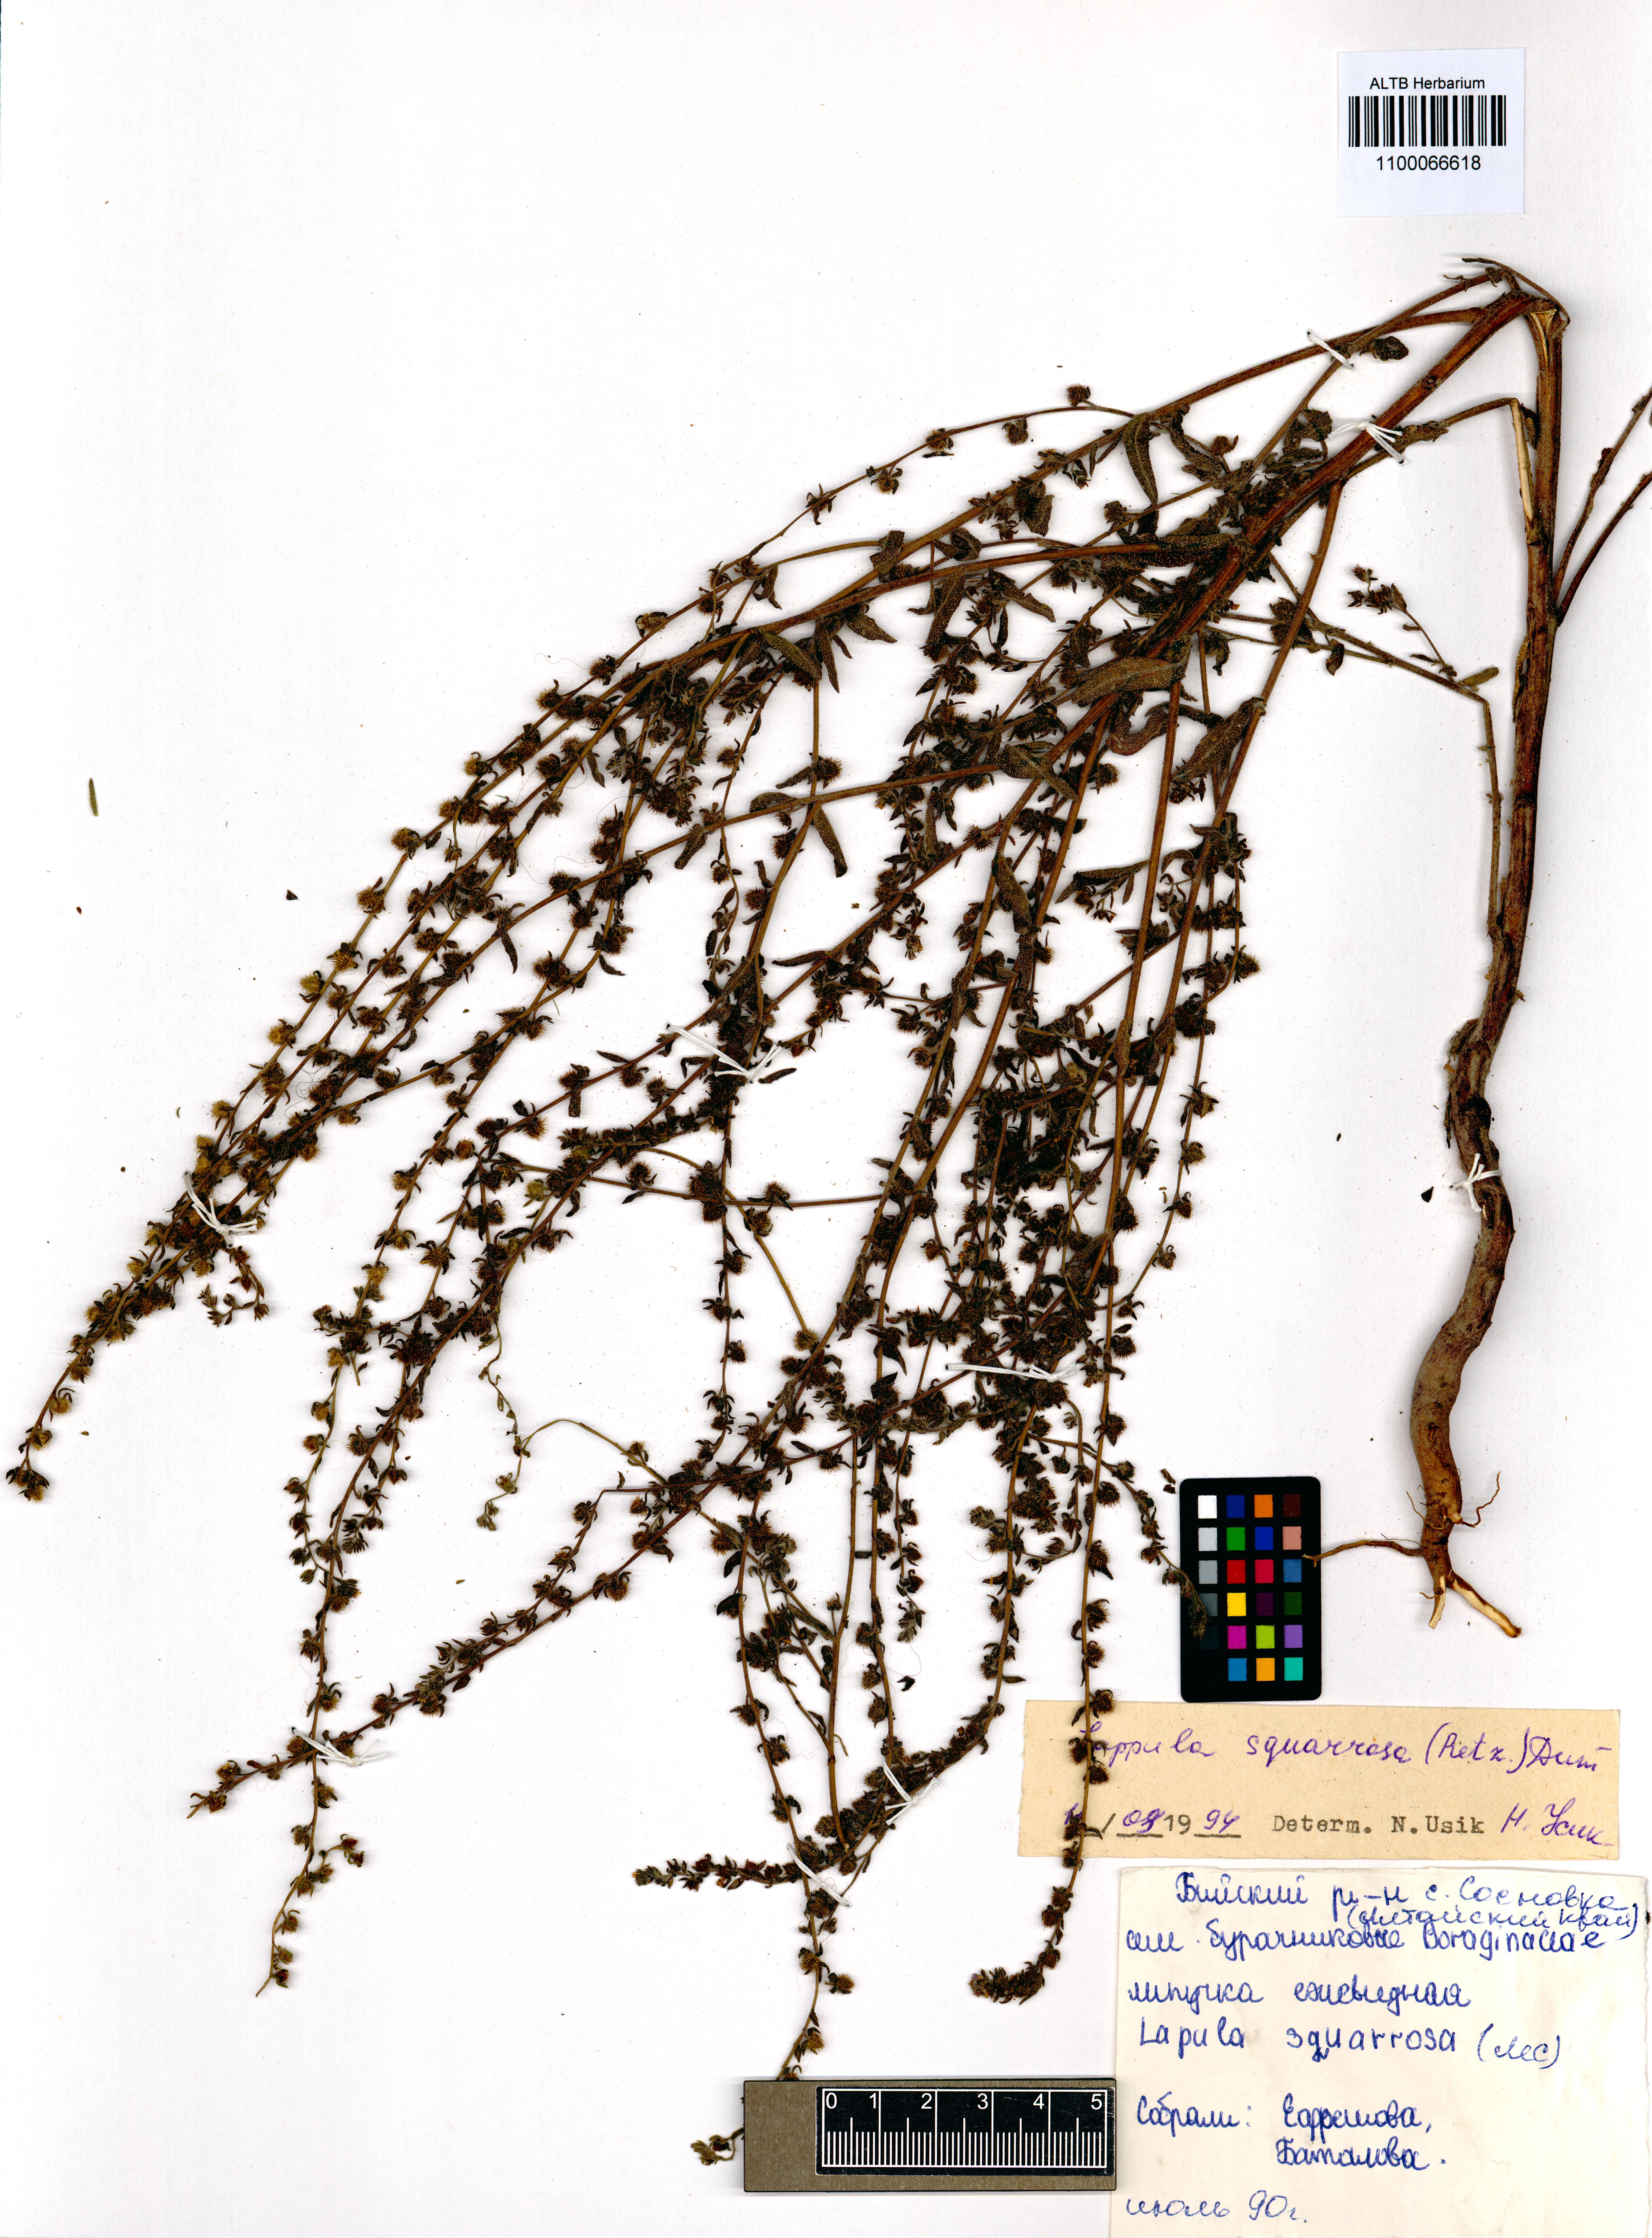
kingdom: Plantae
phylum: Tracheophyta
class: Magnoliopsida
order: Boraginales
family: Boraginaceae
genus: Lappula
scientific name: Lappula squarrosa
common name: European stickseed
